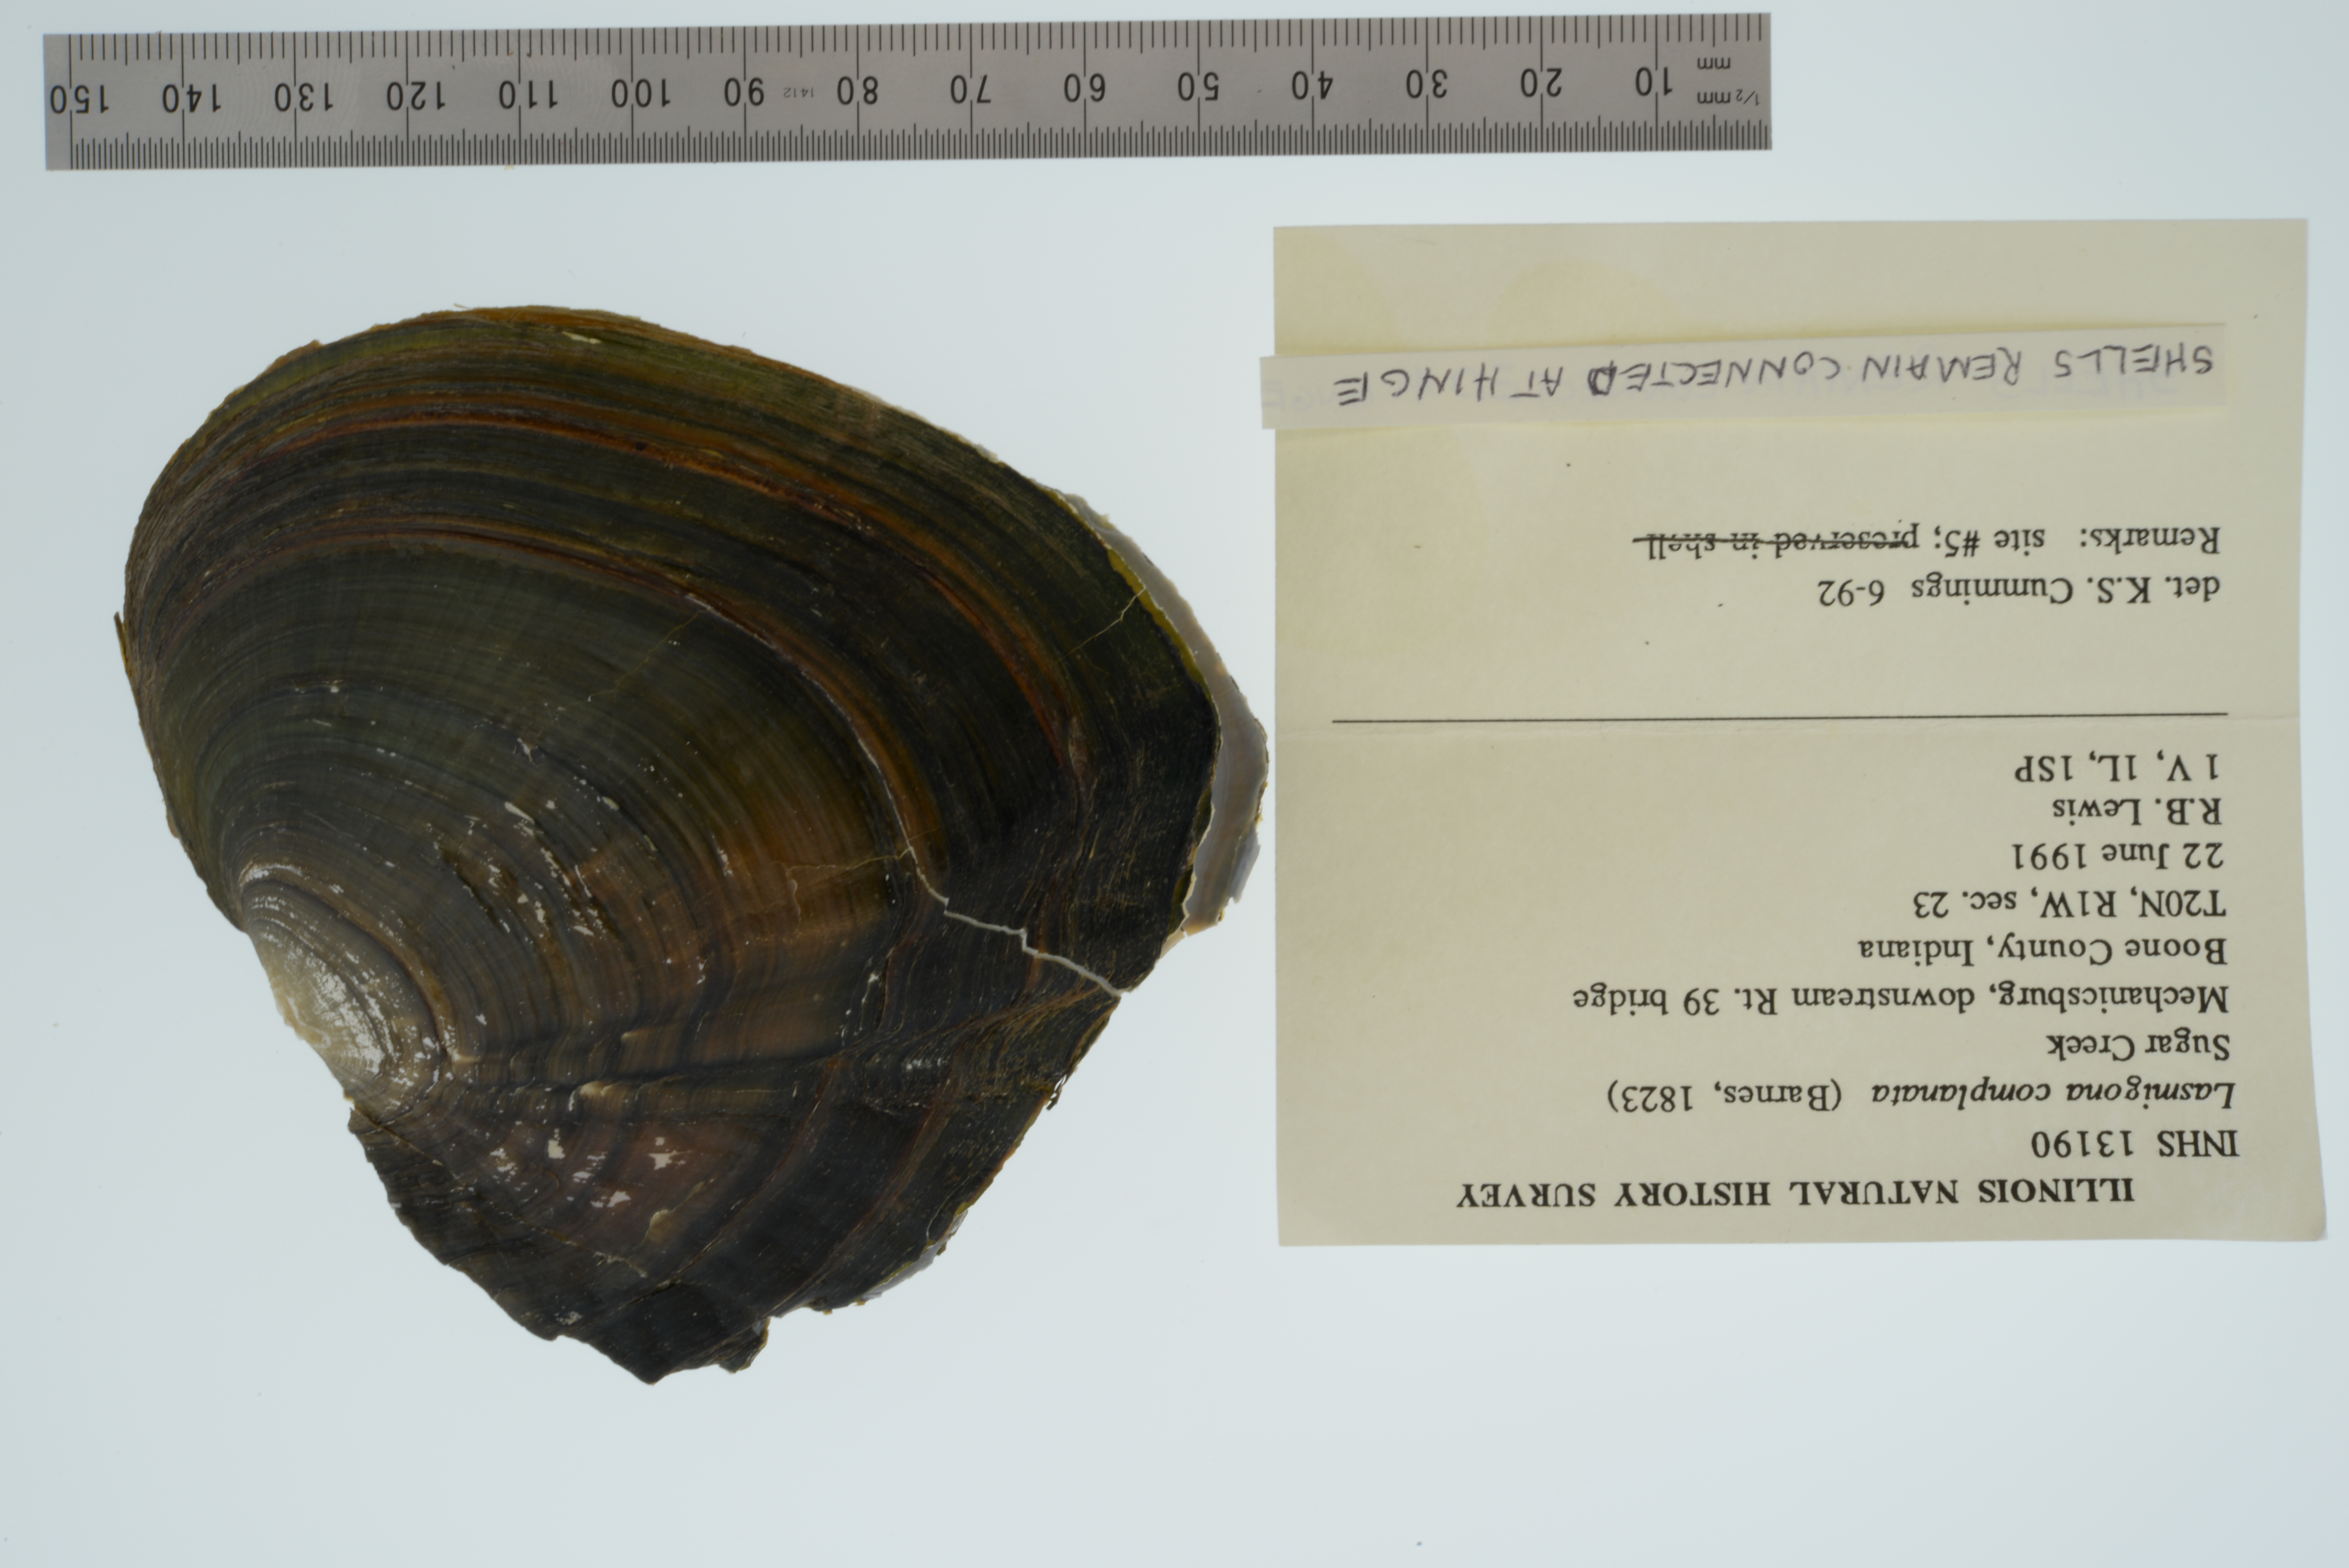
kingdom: Animalia
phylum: Mollusca
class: Bivalvia
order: Unionida
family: Unionidae
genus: Lasmigona
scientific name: Lasmigona complanata
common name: White heelsplitter
